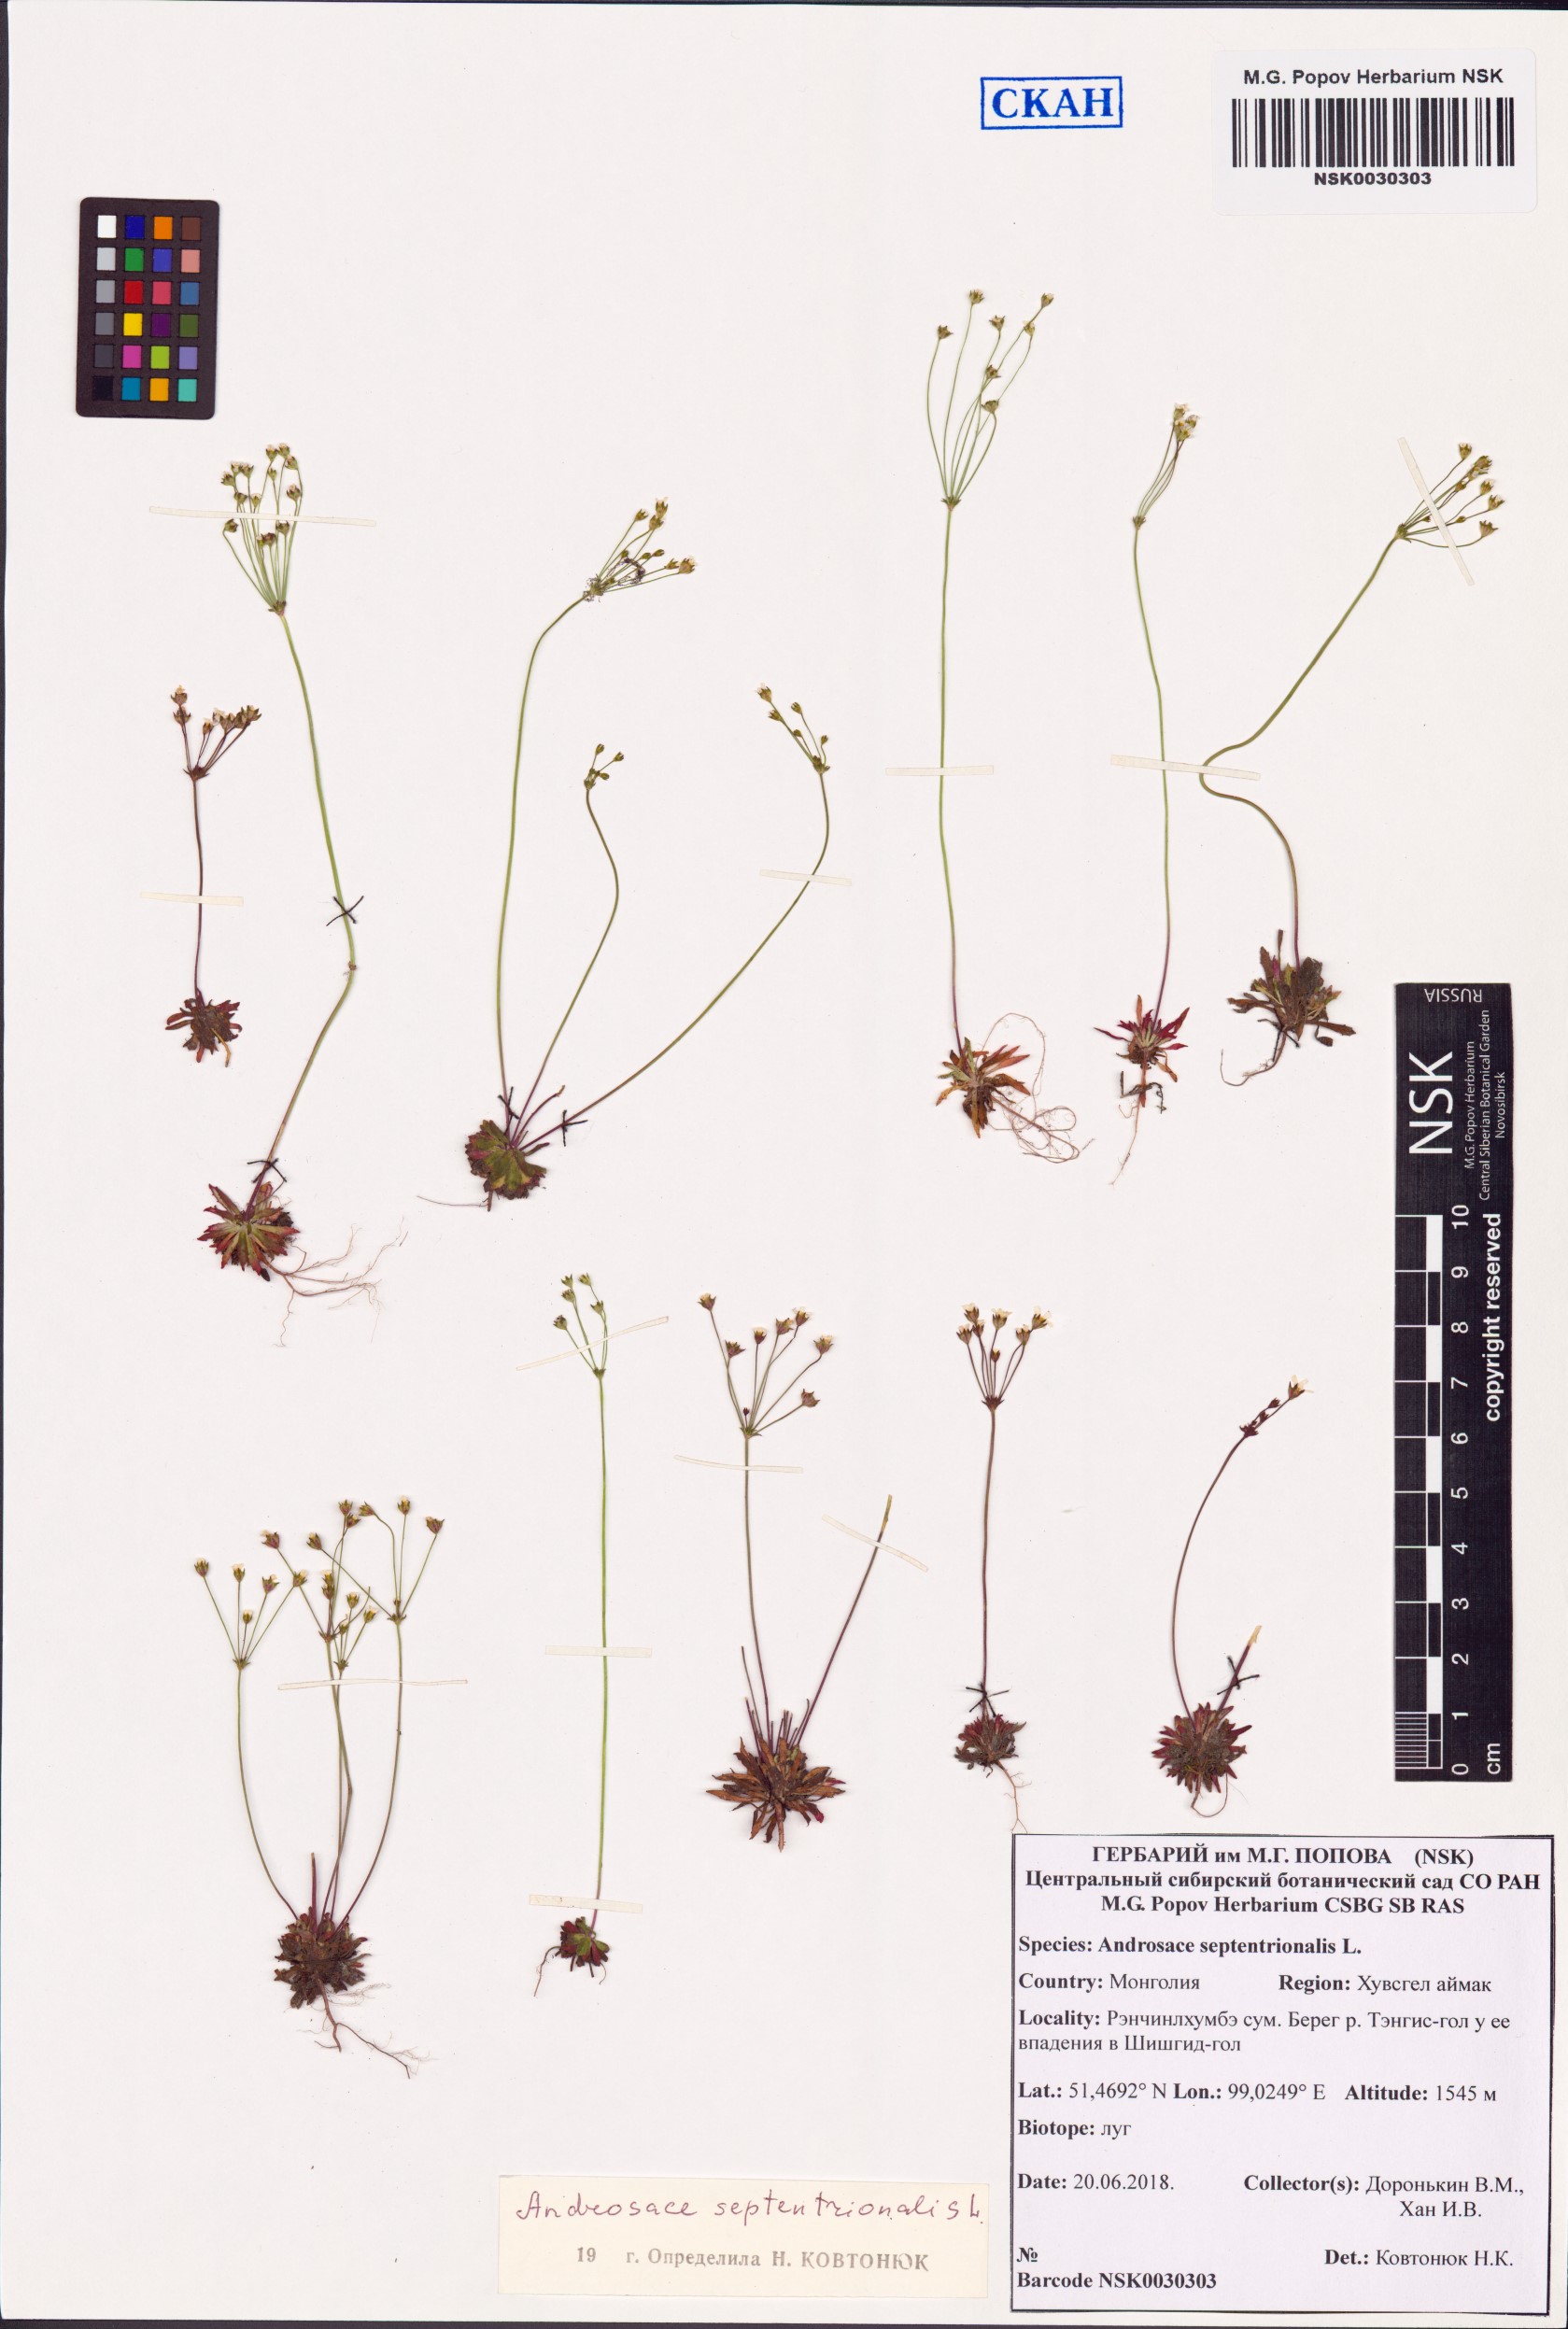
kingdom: Plantae
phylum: Tracheophyta
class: Magnoliopsida
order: Ericales
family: Primulaceae
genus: Androsace
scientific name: Androsace septentrionalis
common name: Hairy northern fairy-candelabra
